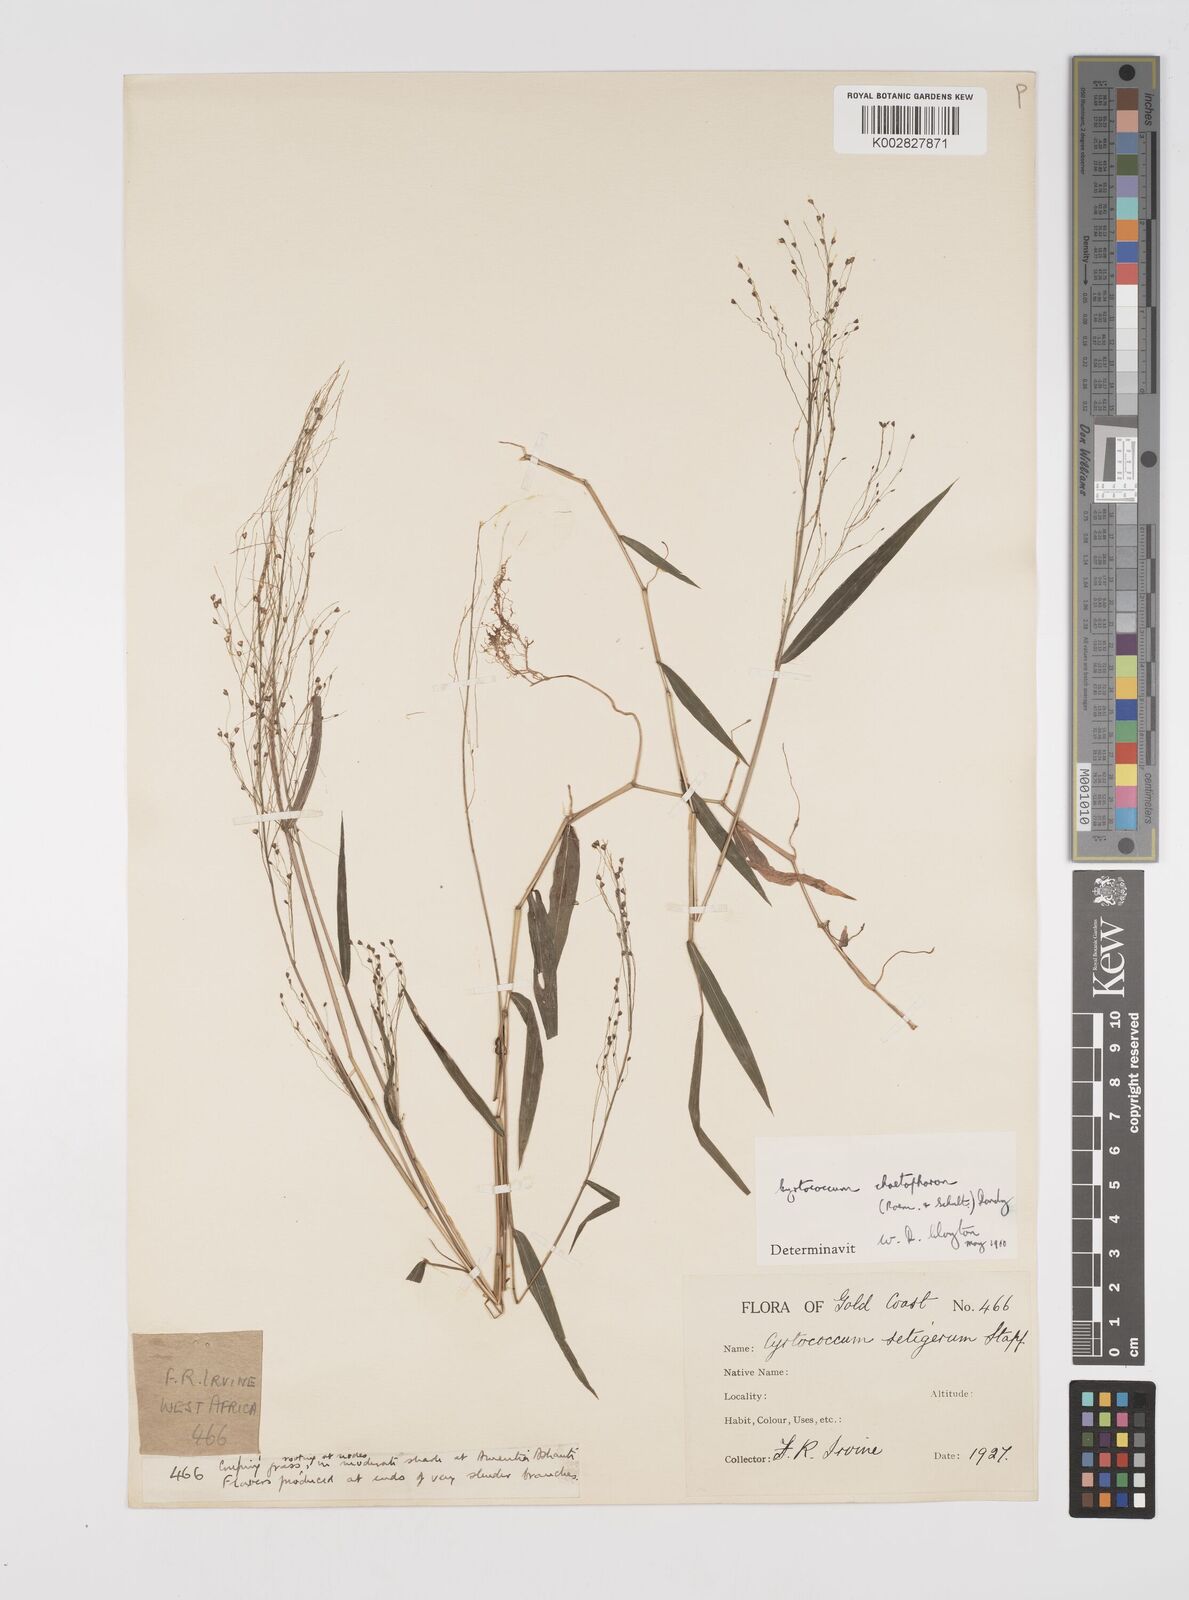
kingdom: Plantae
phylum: Tracheophyta
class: Liliopsida
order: Poales
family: Poaceae
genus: Cyrtococcum
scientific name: Cyrtococcum chaetophoron
